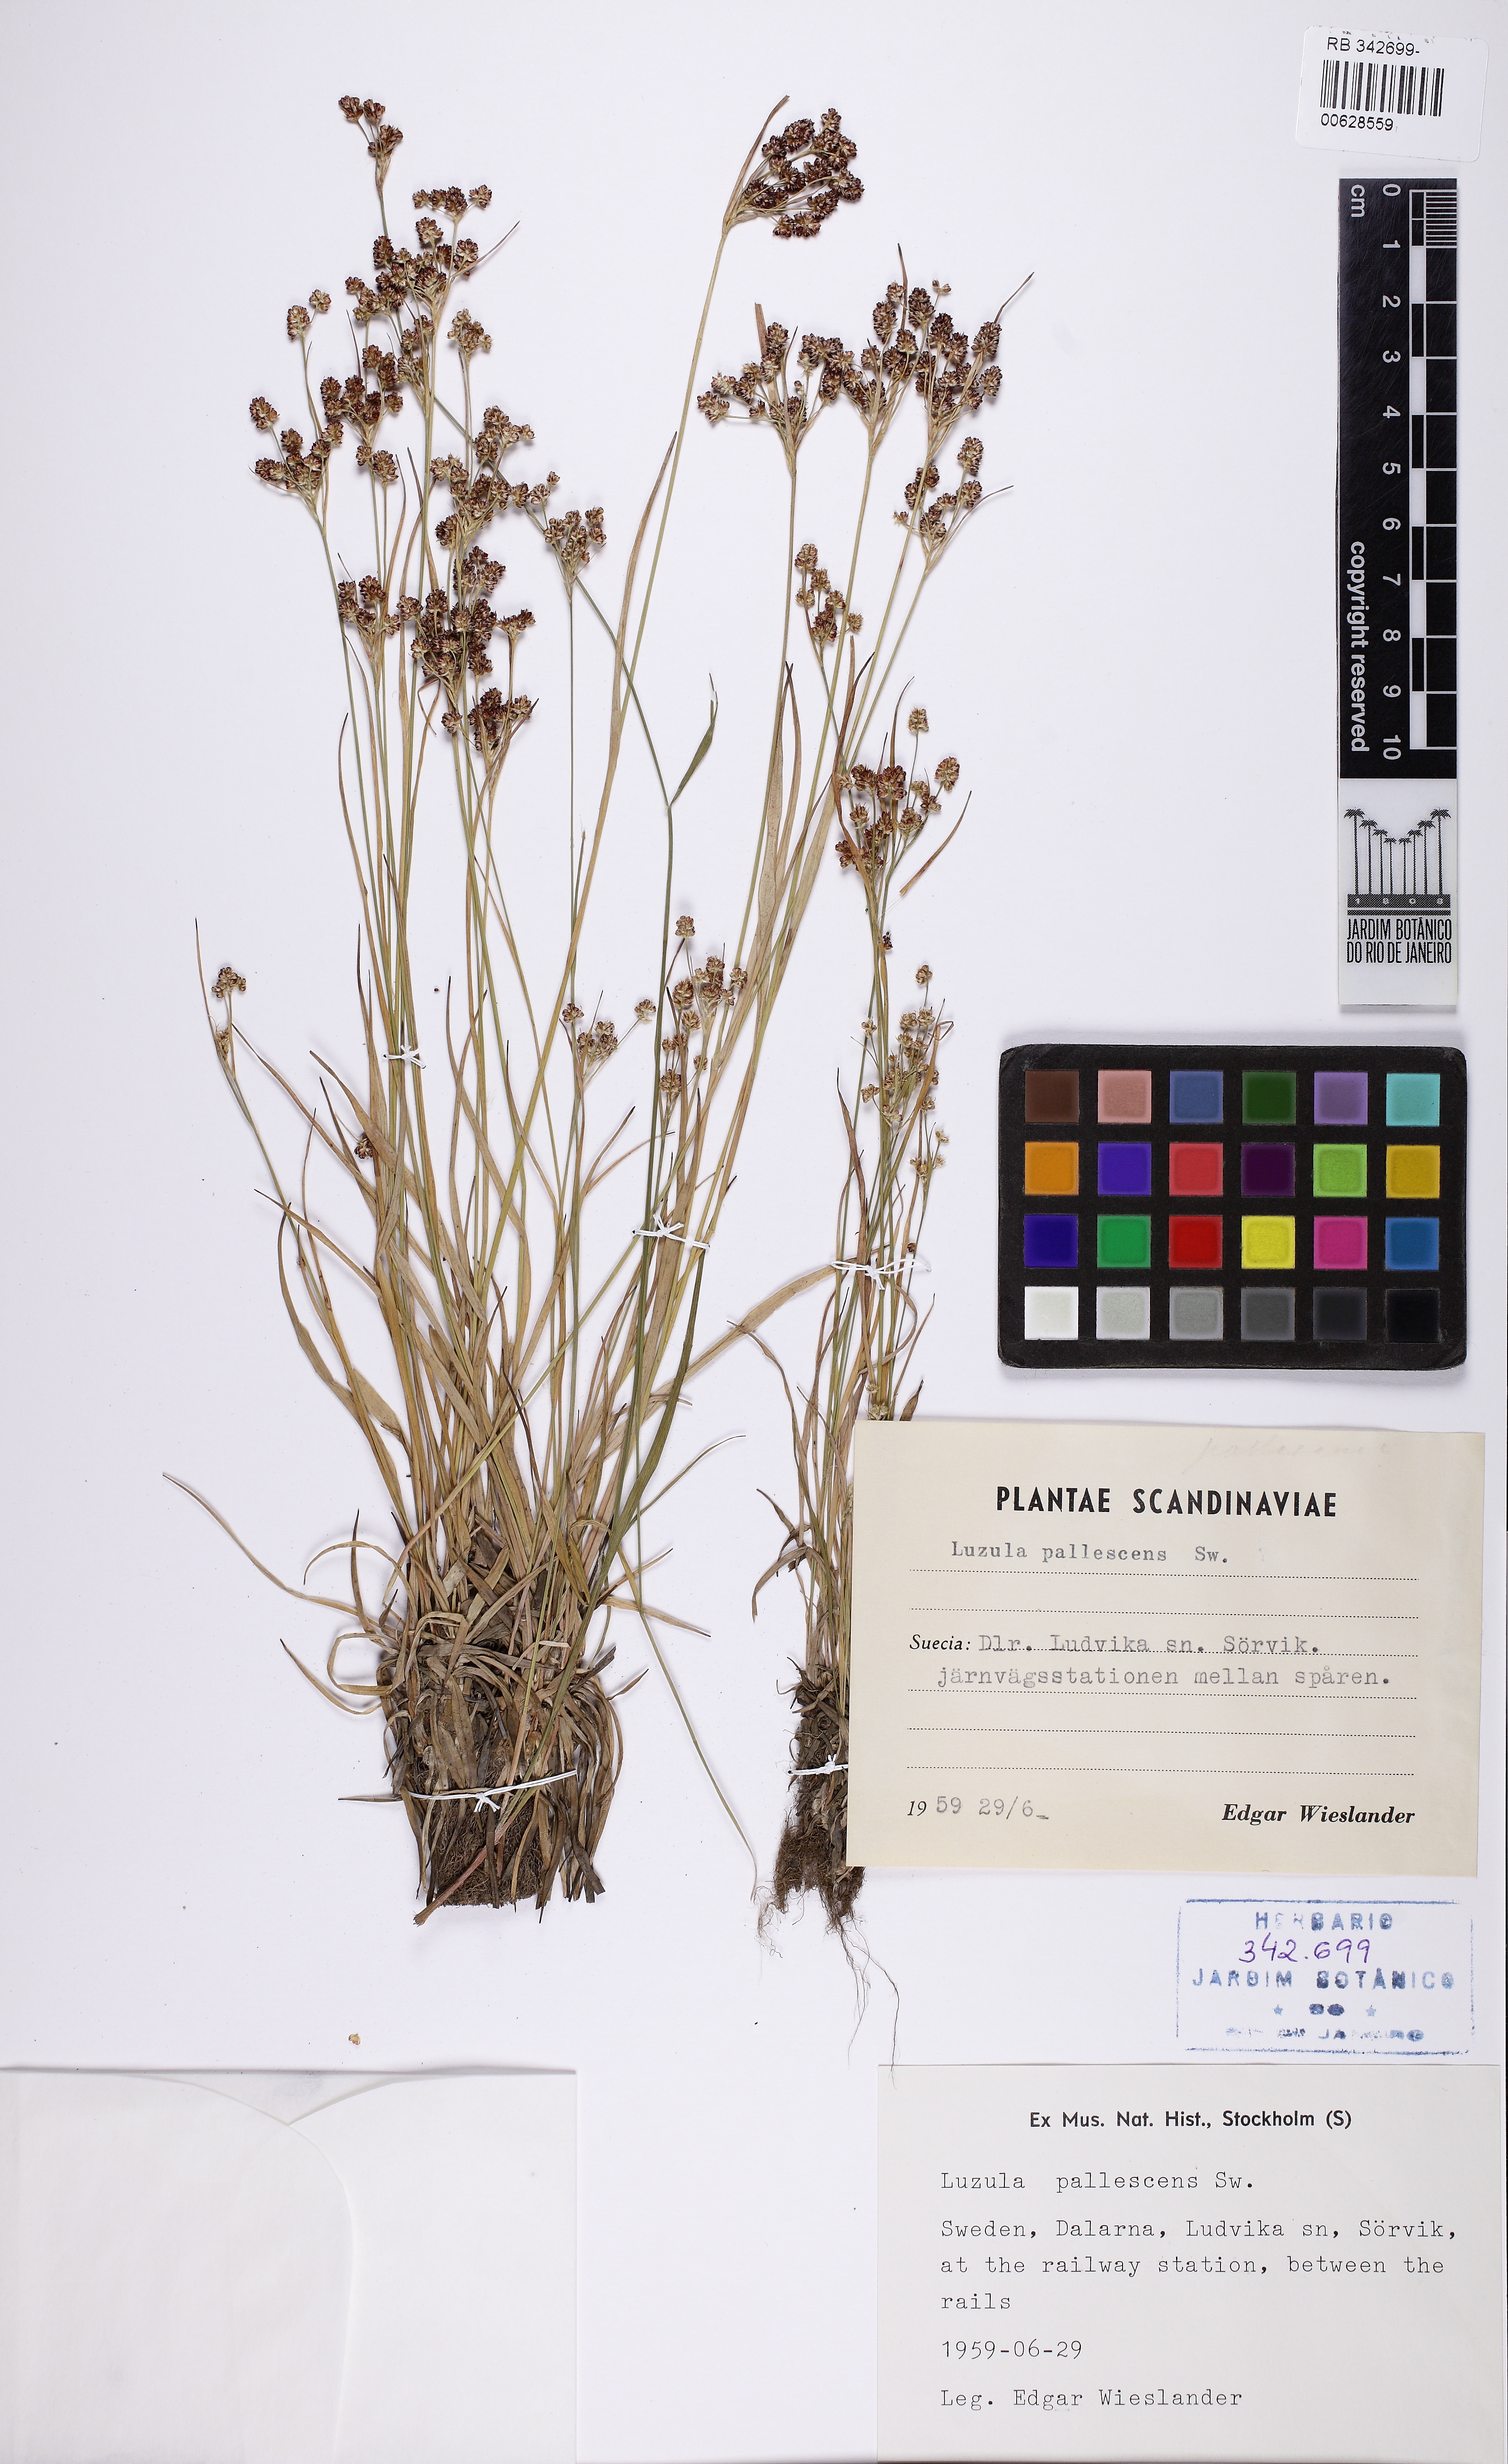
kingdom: Plantae
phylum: Tracheophyta
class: Liliopsida
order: Poales
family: Juncaceae
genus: Luzula
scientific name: Luzula pallescens
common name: Fen wood-rush
